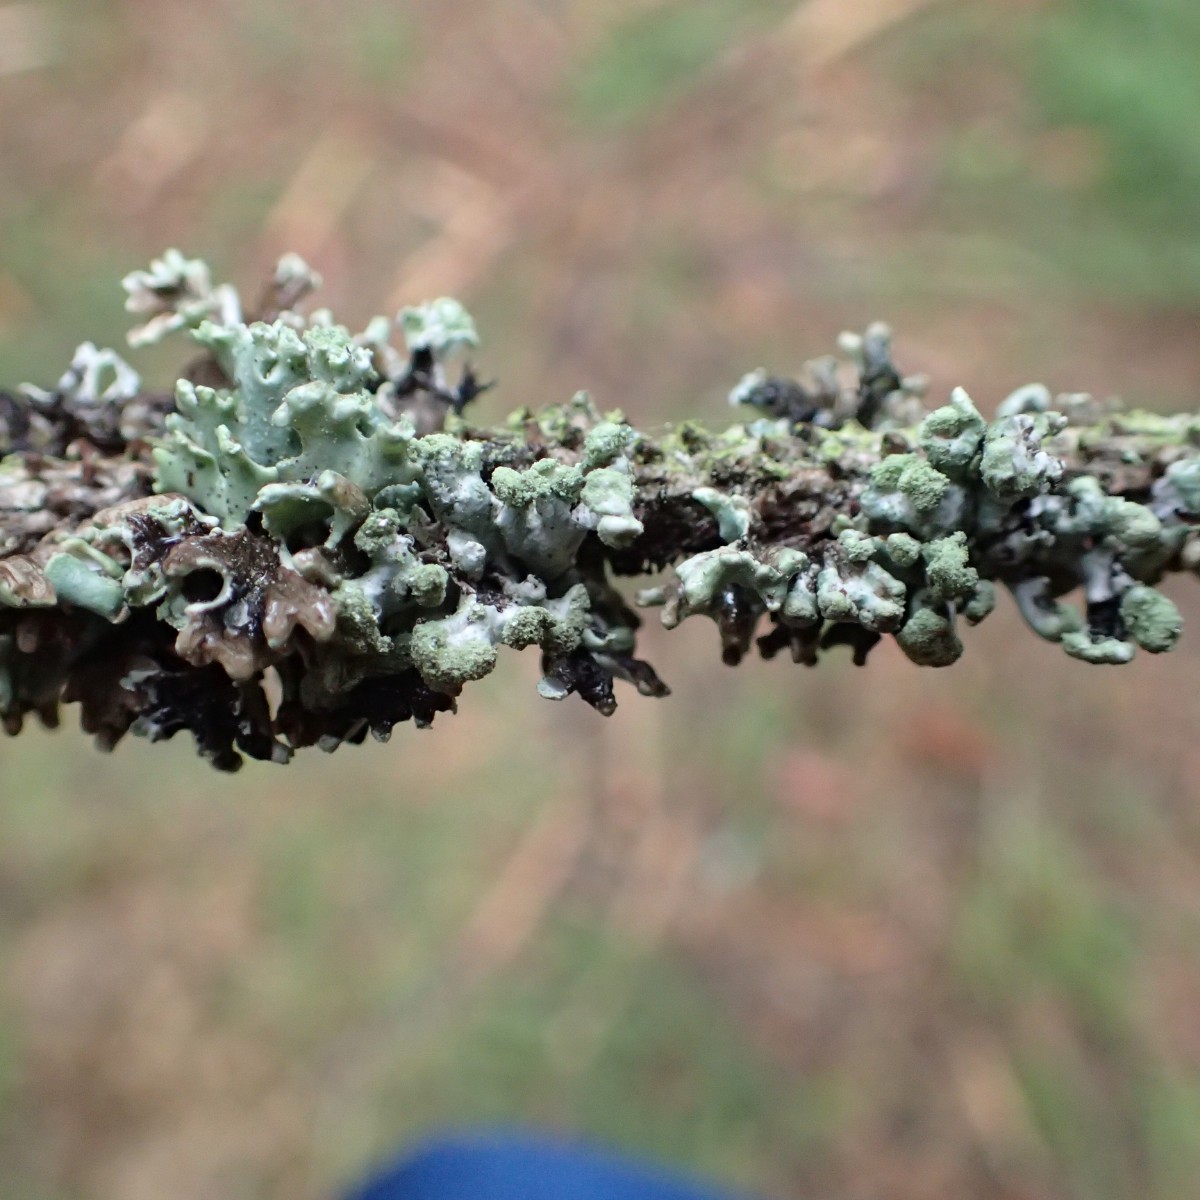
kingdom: Fungi
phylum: Ascomycota
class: Lecanoromycetes
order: Lecanorales
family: Parmeliaceae
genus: Hypogymnia
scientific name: Hypogymnia physodes
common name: almindelig kvistlav
